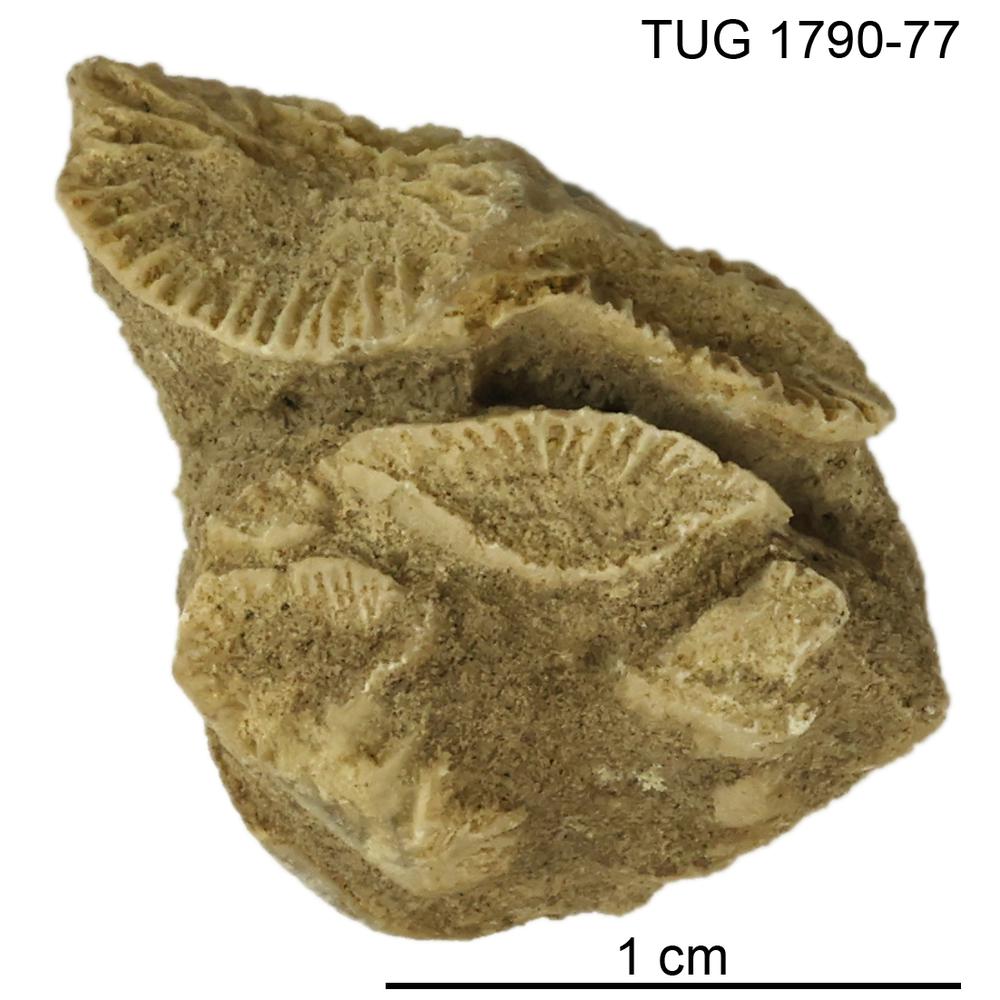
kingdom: Animalia
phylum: Cnidaria
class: Anthozoa
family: Streptelasmatidae
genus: Densiphyllum
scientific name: Densiphyllum
